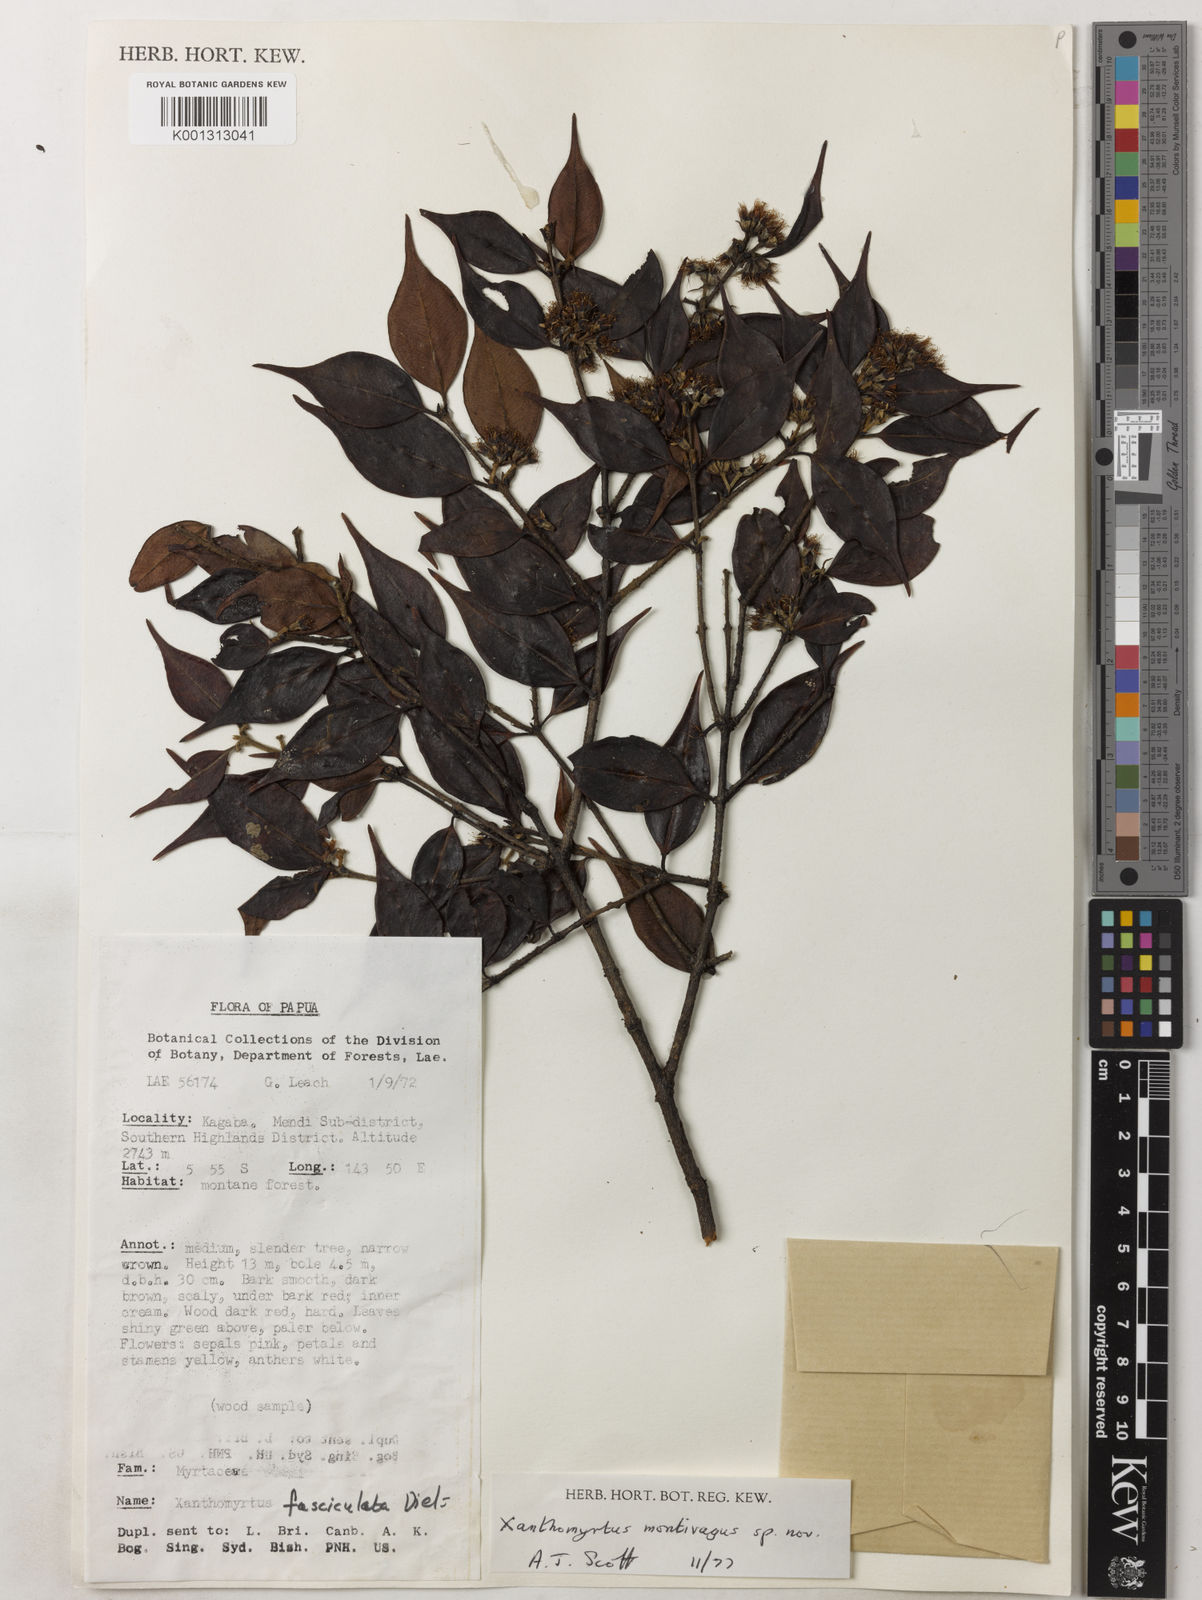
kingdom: Plantae
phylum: Tracheophyta
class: Magnoliopsida
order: Myrtales
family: Myrtaceae
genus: Xanthomyrtus
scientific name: Xanthomyrtus montivaga
